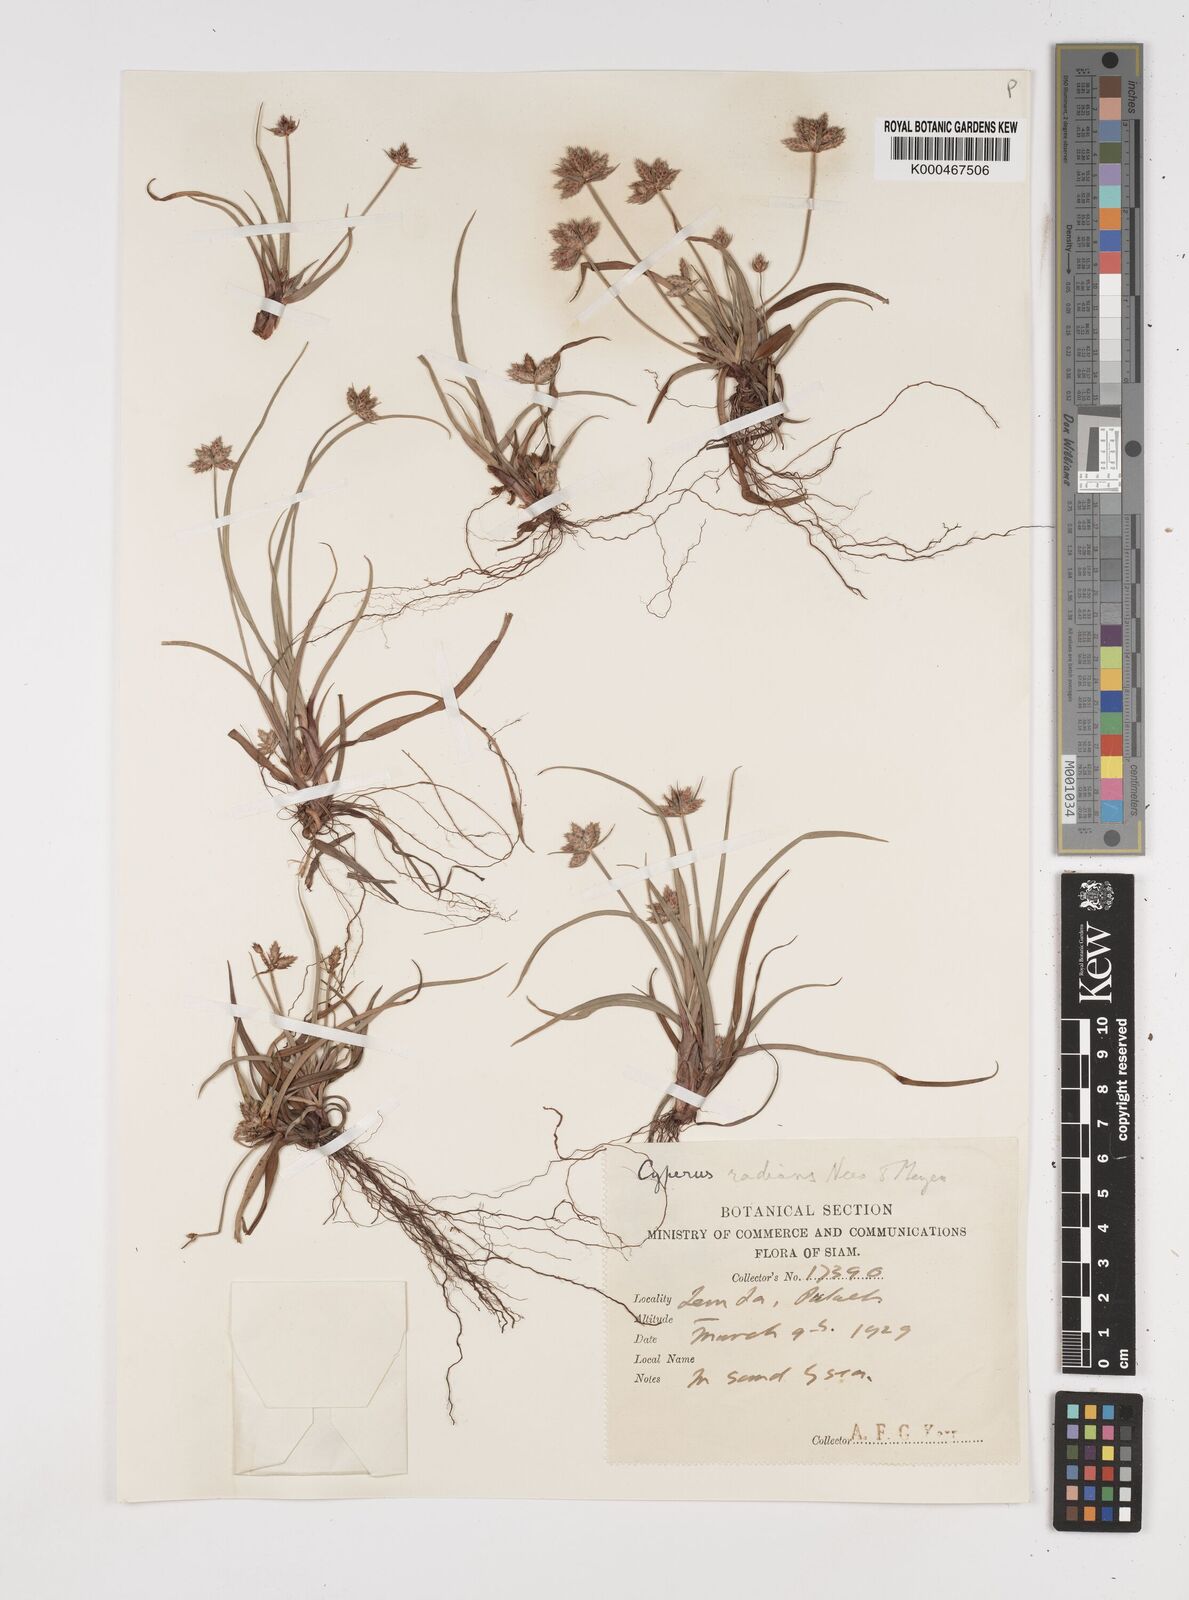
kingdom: Plantae
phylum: Tracheophyta
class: Liliopsida
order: Poales
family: Cyperaceae
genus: Cyperus
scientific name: Cyperus radians
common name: Short-stem cyperus
